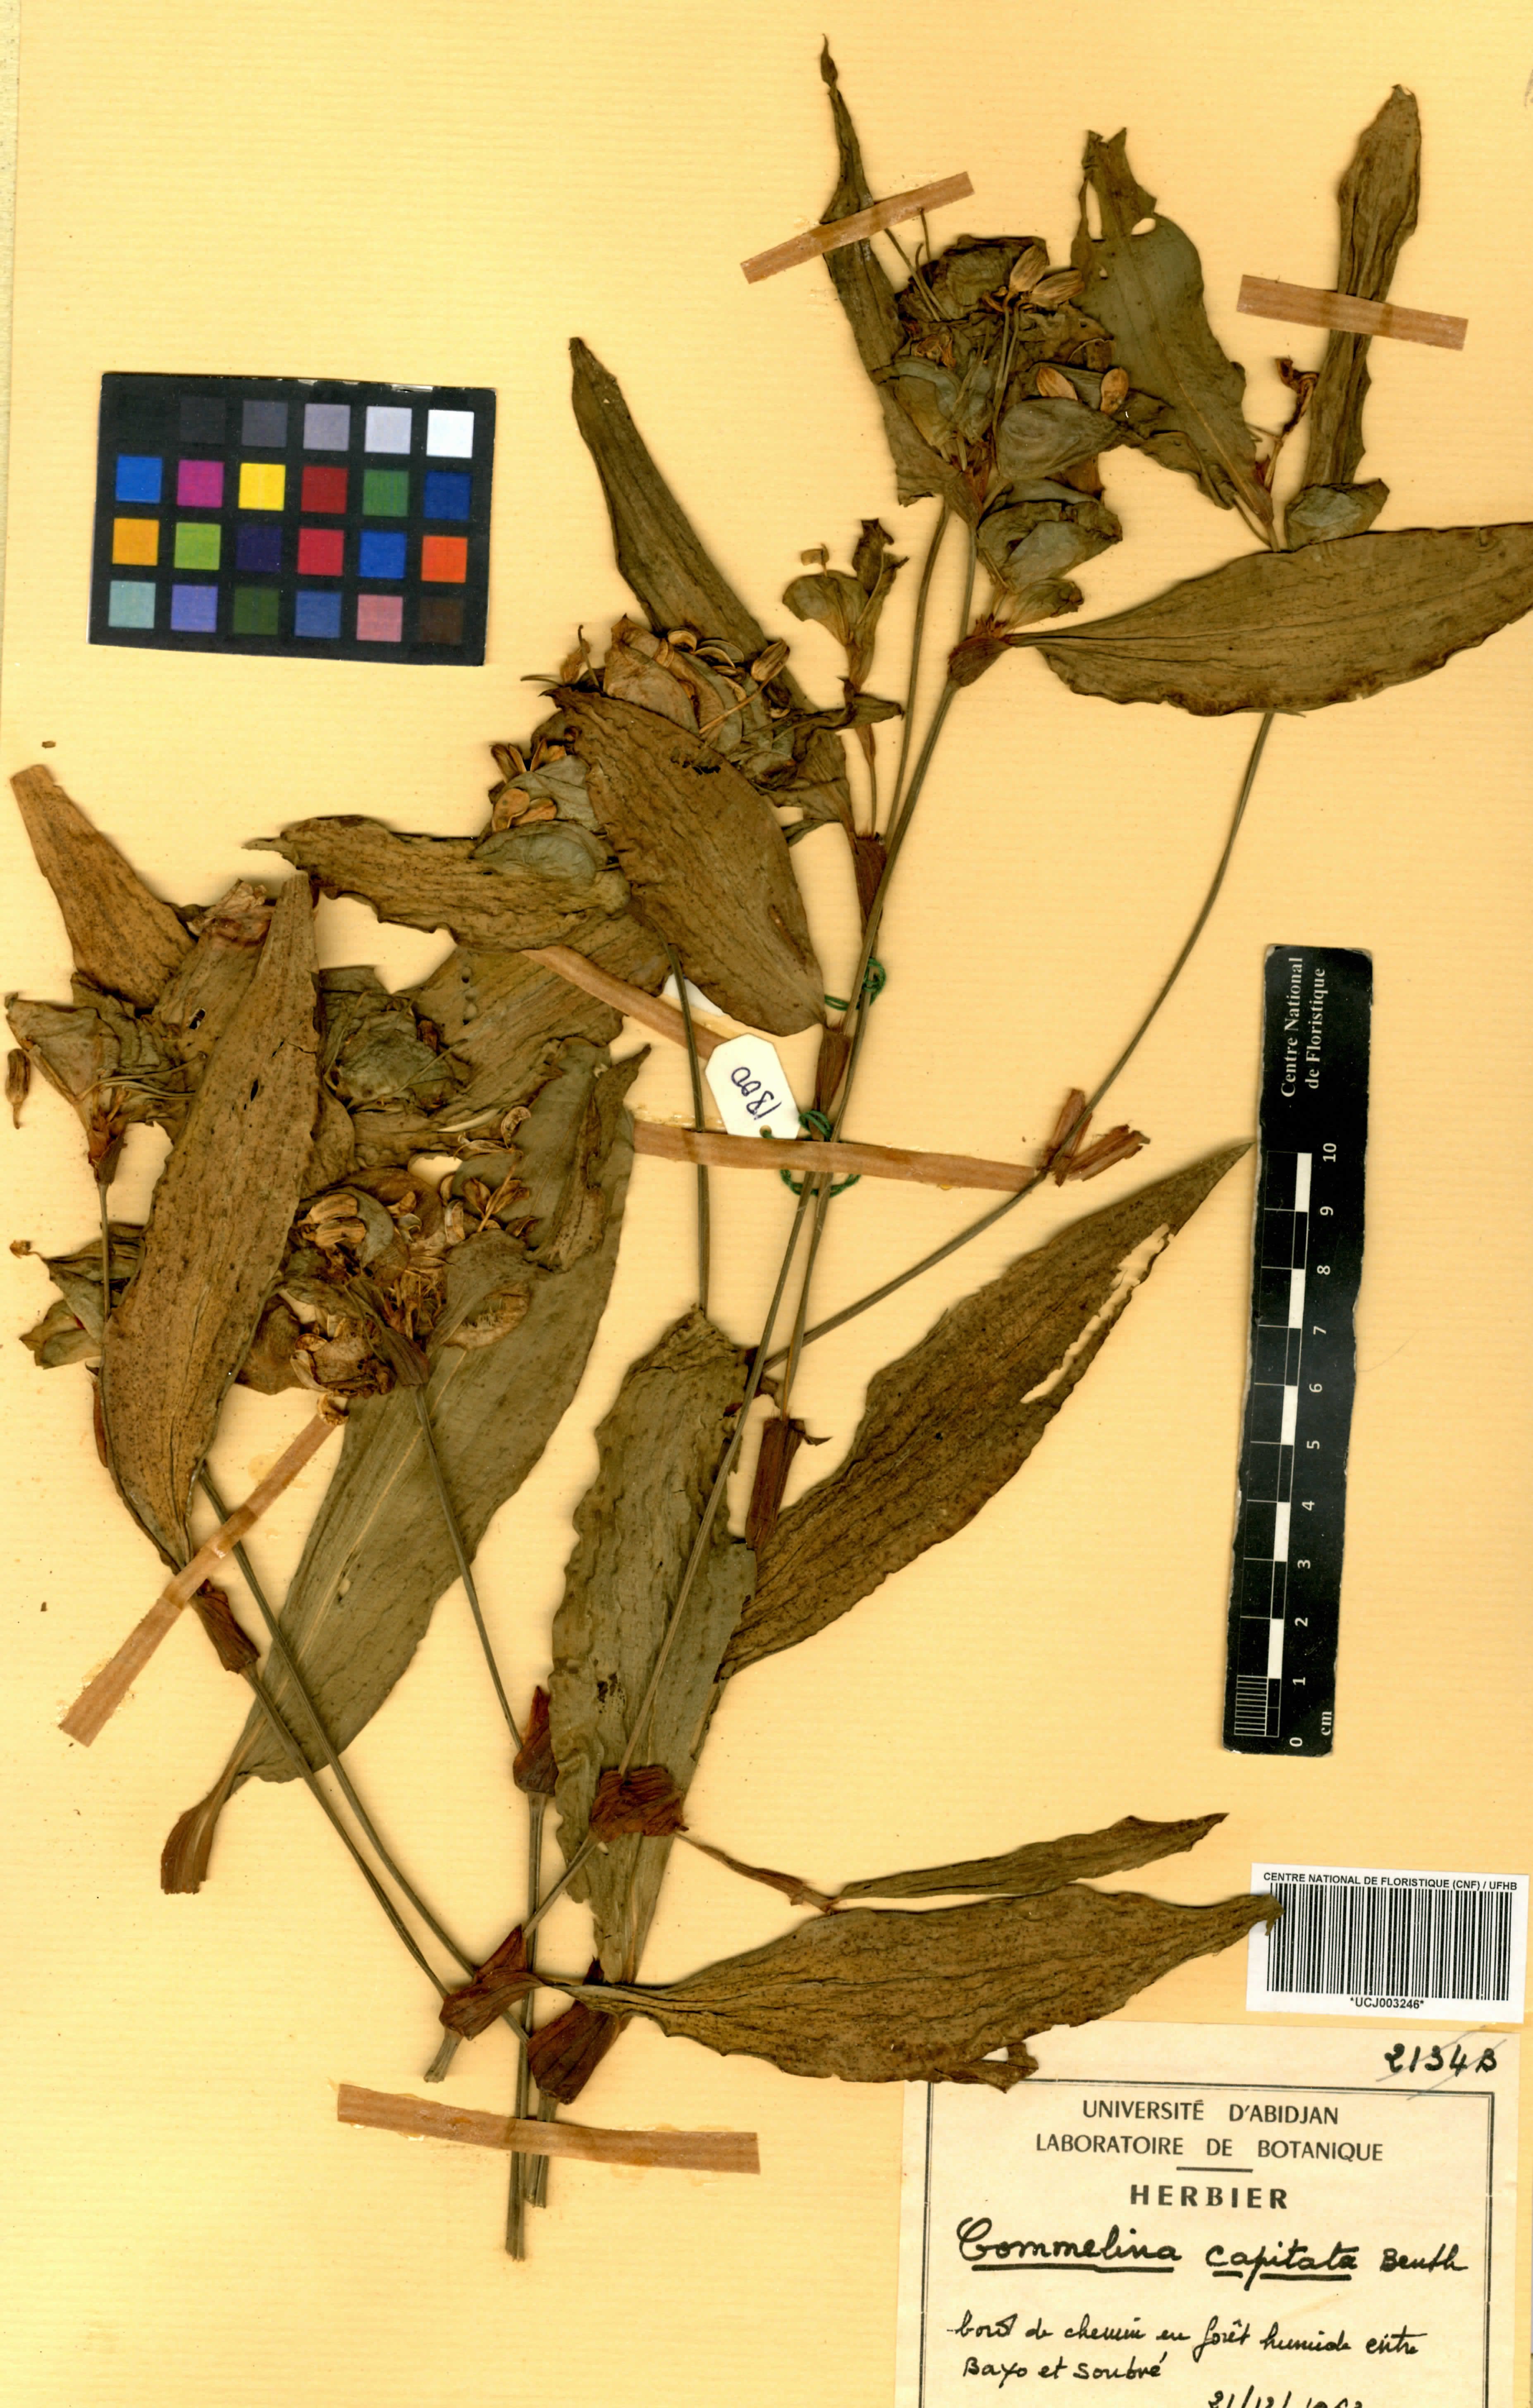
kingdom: Plantae
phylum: Tracheophyta
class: Liliopsida
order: Commelinales
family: Commelinaceae
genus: Commelina
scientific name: Commelina capitata
